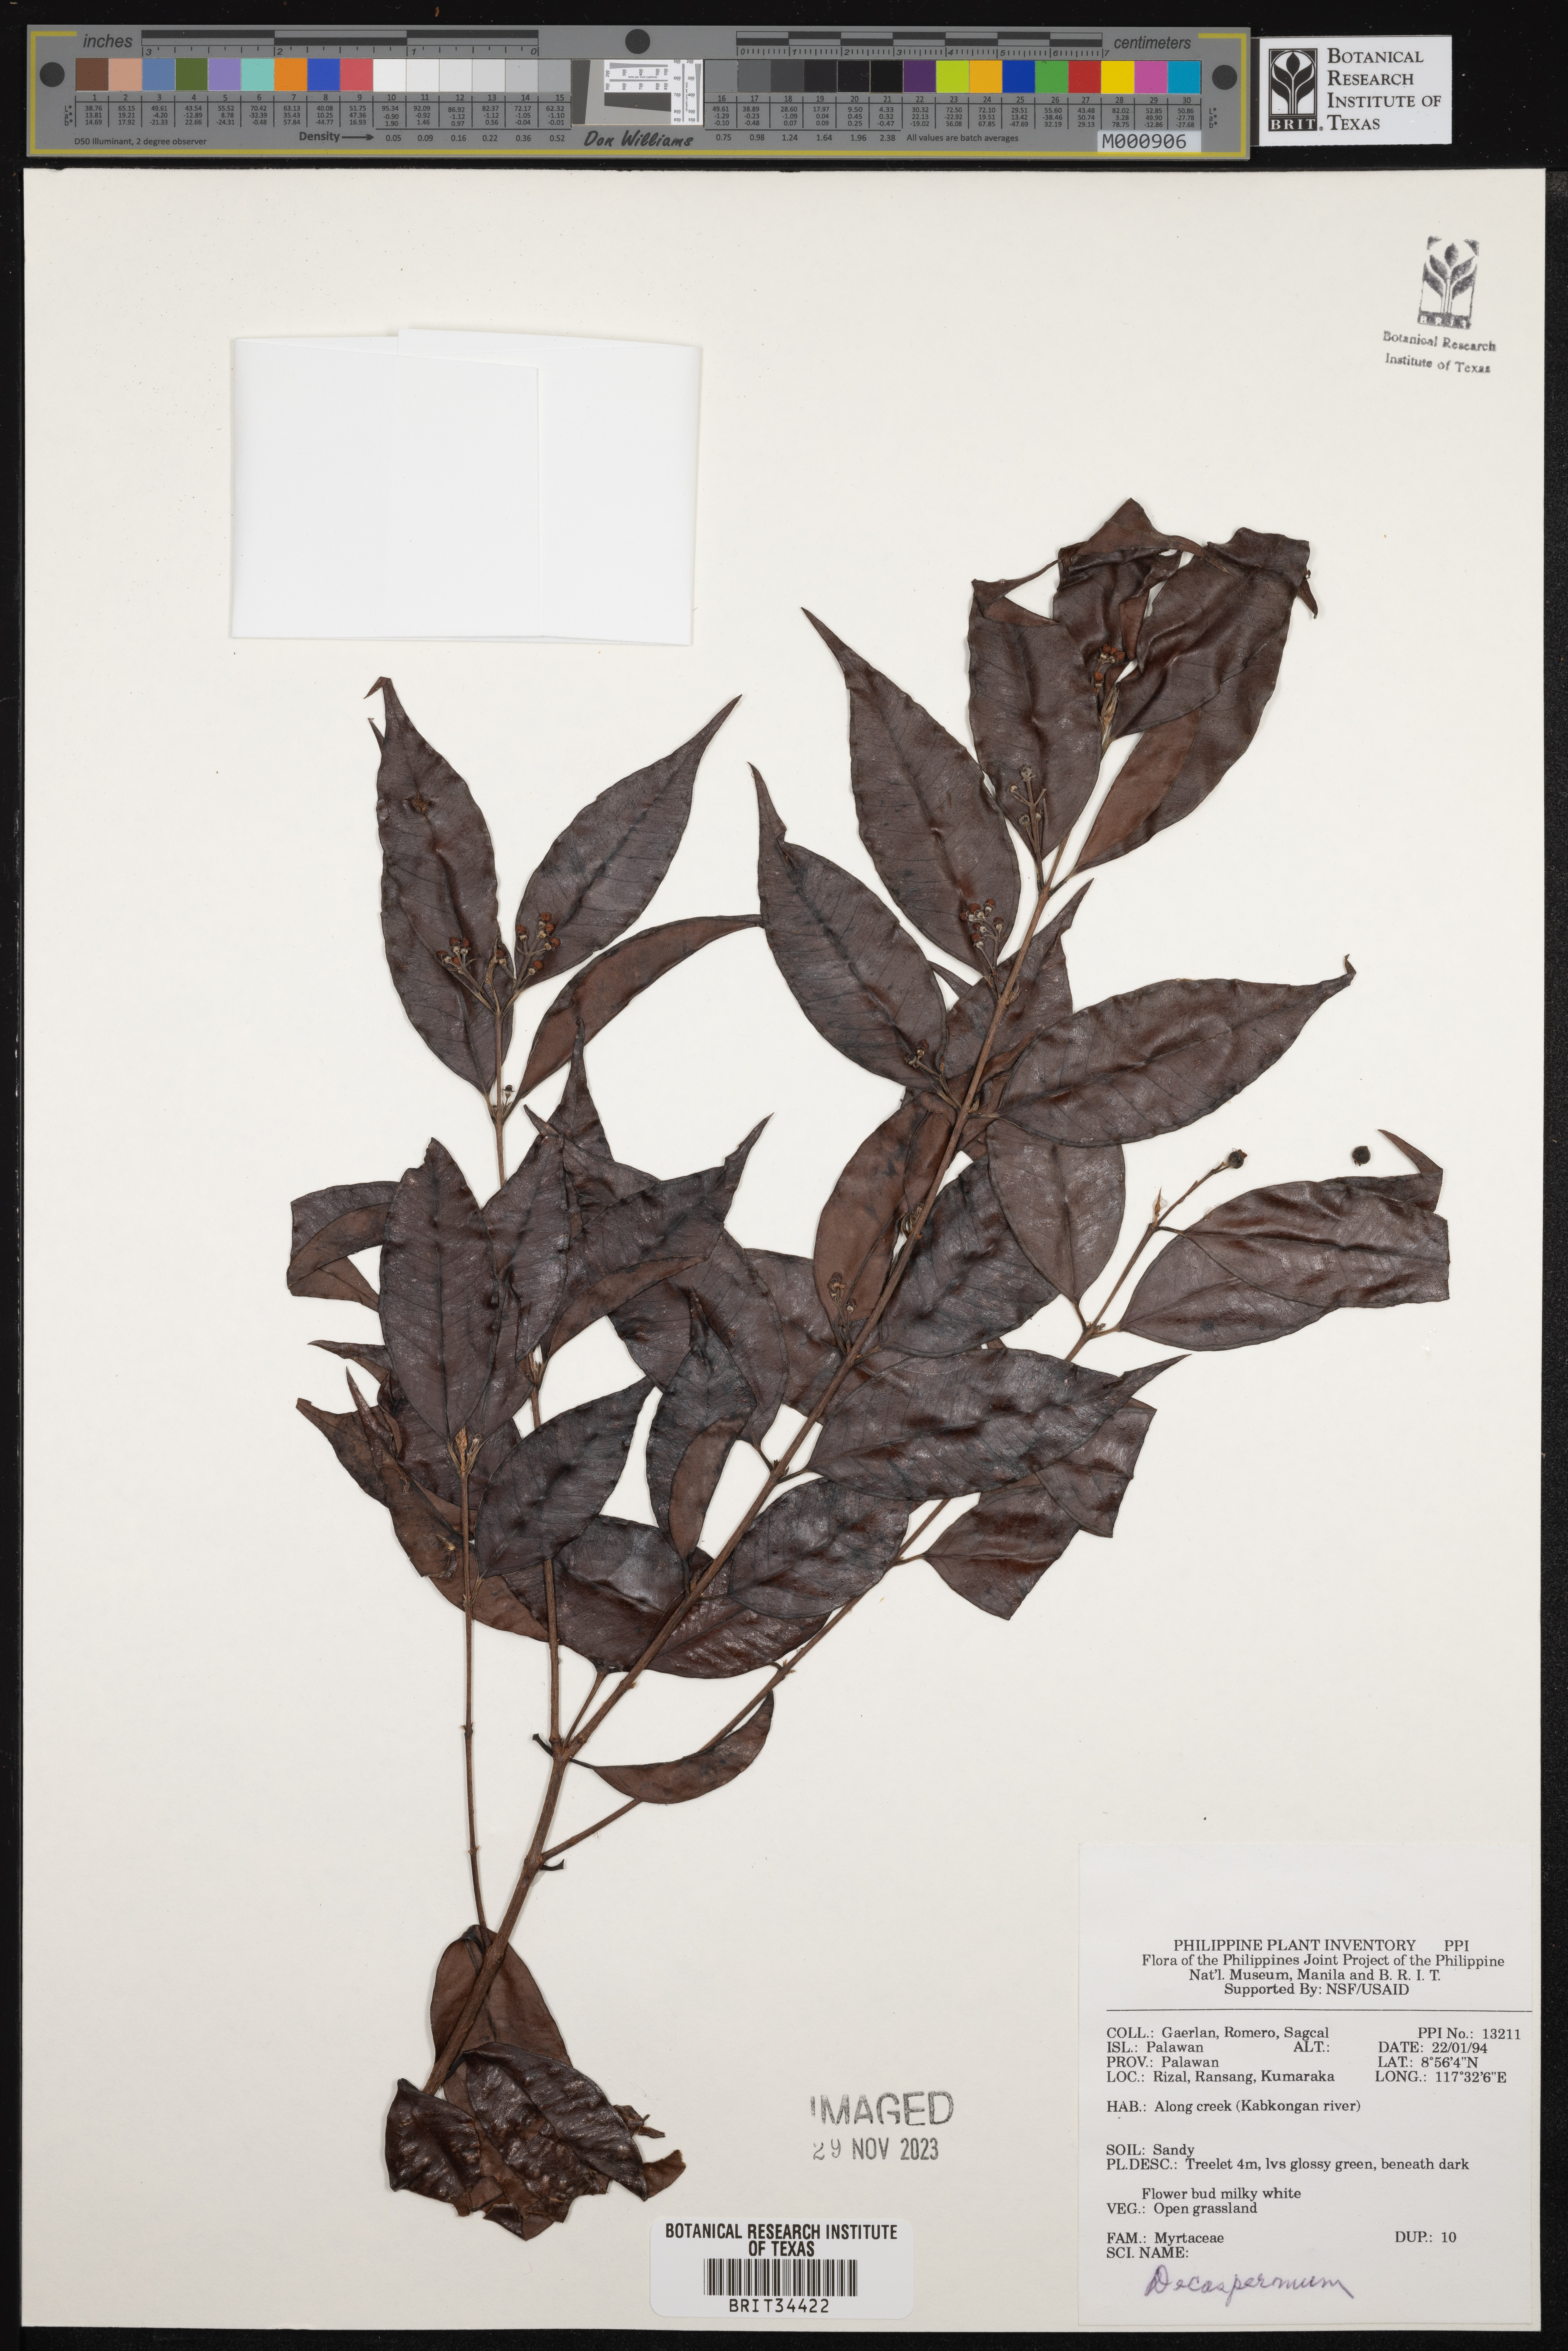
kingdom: Plantae
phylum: Tracheophyta
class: Magnoliopsida
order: Myrtales
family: Myrtaceae
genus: Decaspermum
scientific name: Decaspermum
